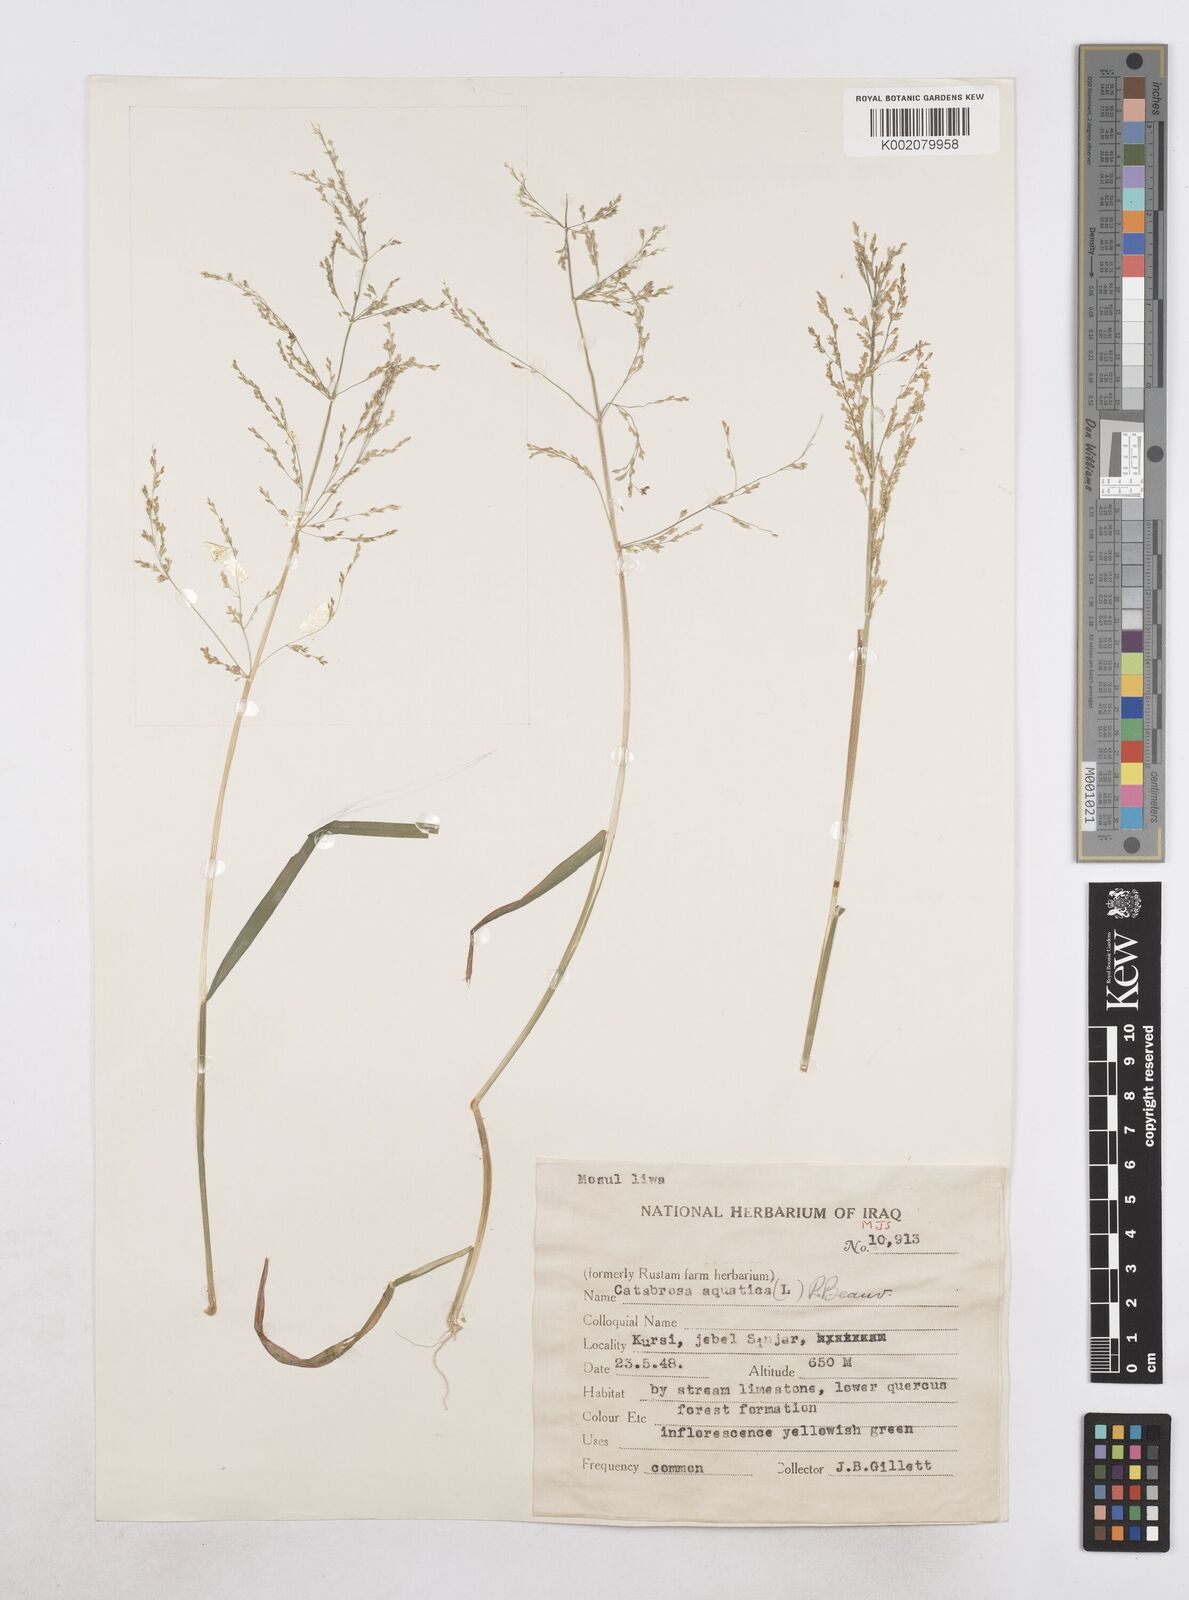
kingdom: Plantae
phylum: Tracheophyta
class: Liliopsida
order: Poales
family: Poaceae
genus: Catabrosa
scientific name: Catabrosa aquatica
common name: Whorl-grass
